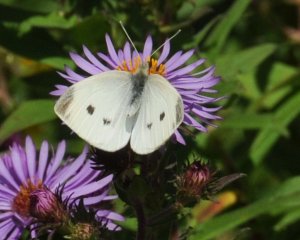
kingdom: Animalia
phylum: Arthropoda
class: Insecta
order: Lepidoptera
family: Pieridae
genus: Pieris
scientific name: Pieris rapae
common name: Cabbage White
